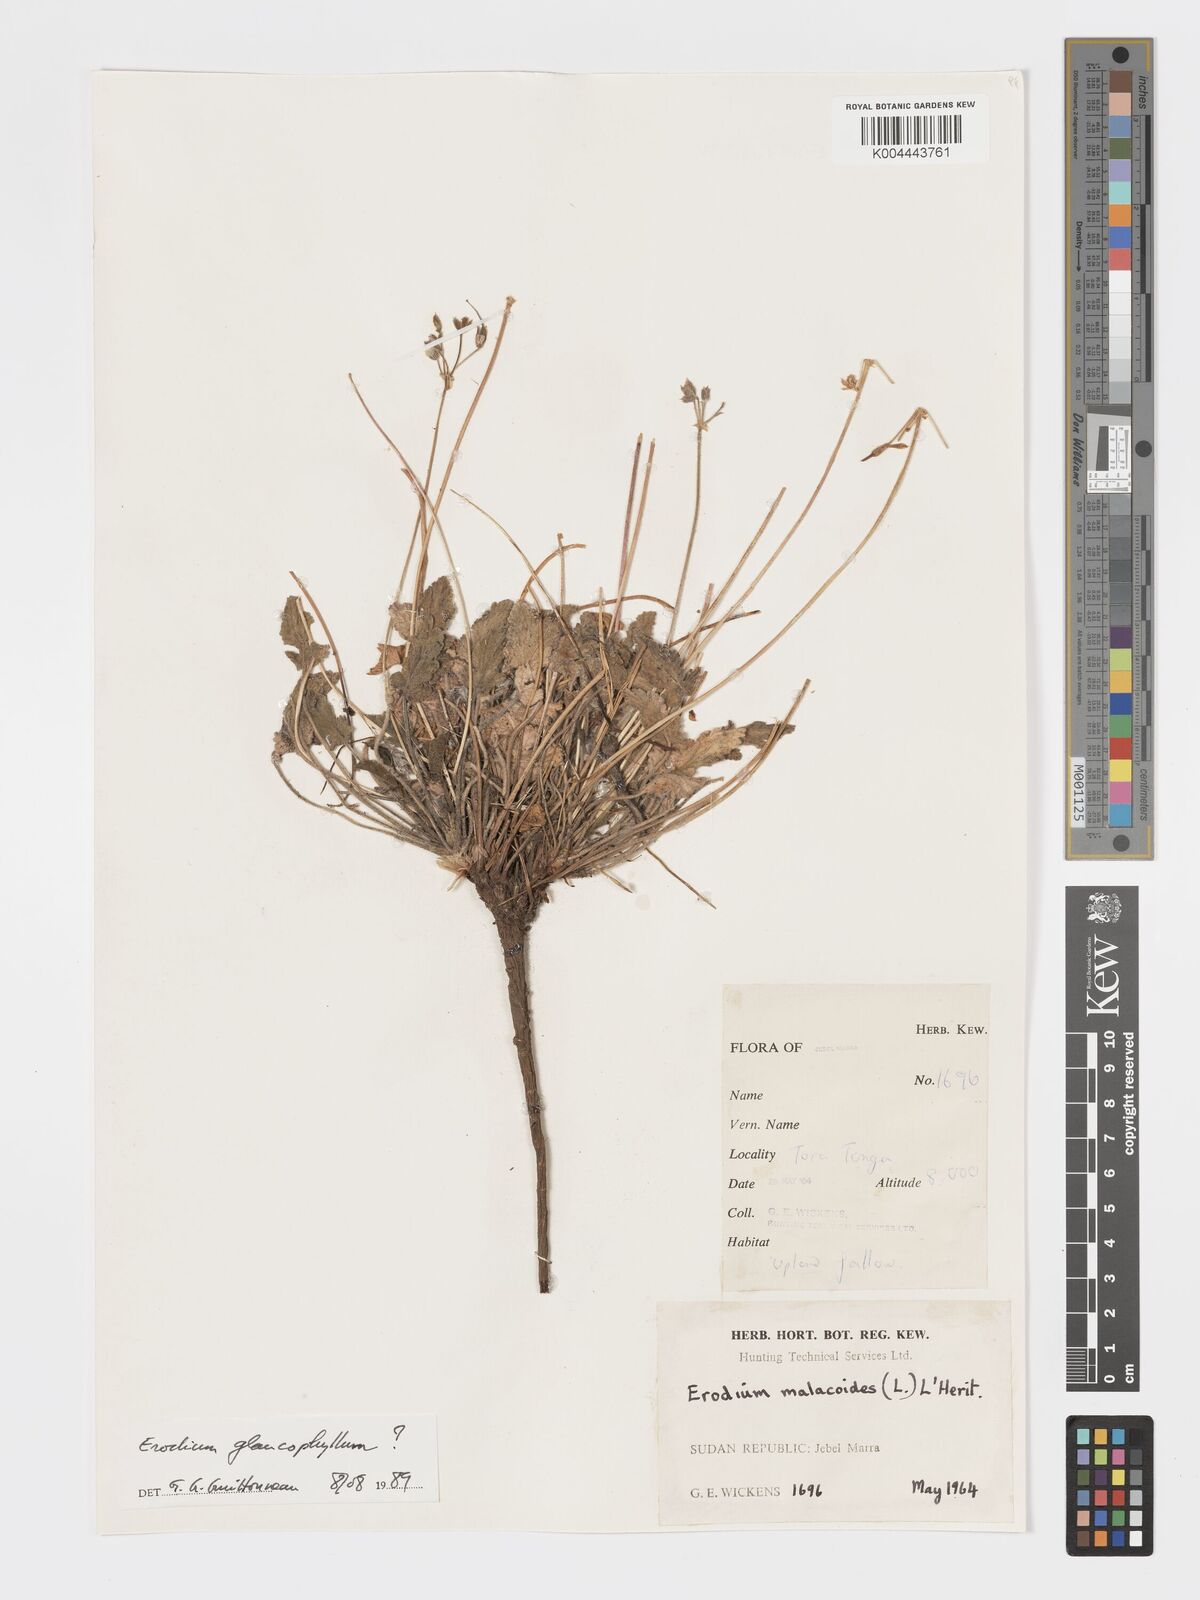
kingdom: Plantae
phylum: Tracheophyta
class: Magnoliopsida
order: Geraniales
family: Geraniaceae
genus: Erodium
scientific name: Erodium glaucophyllum
